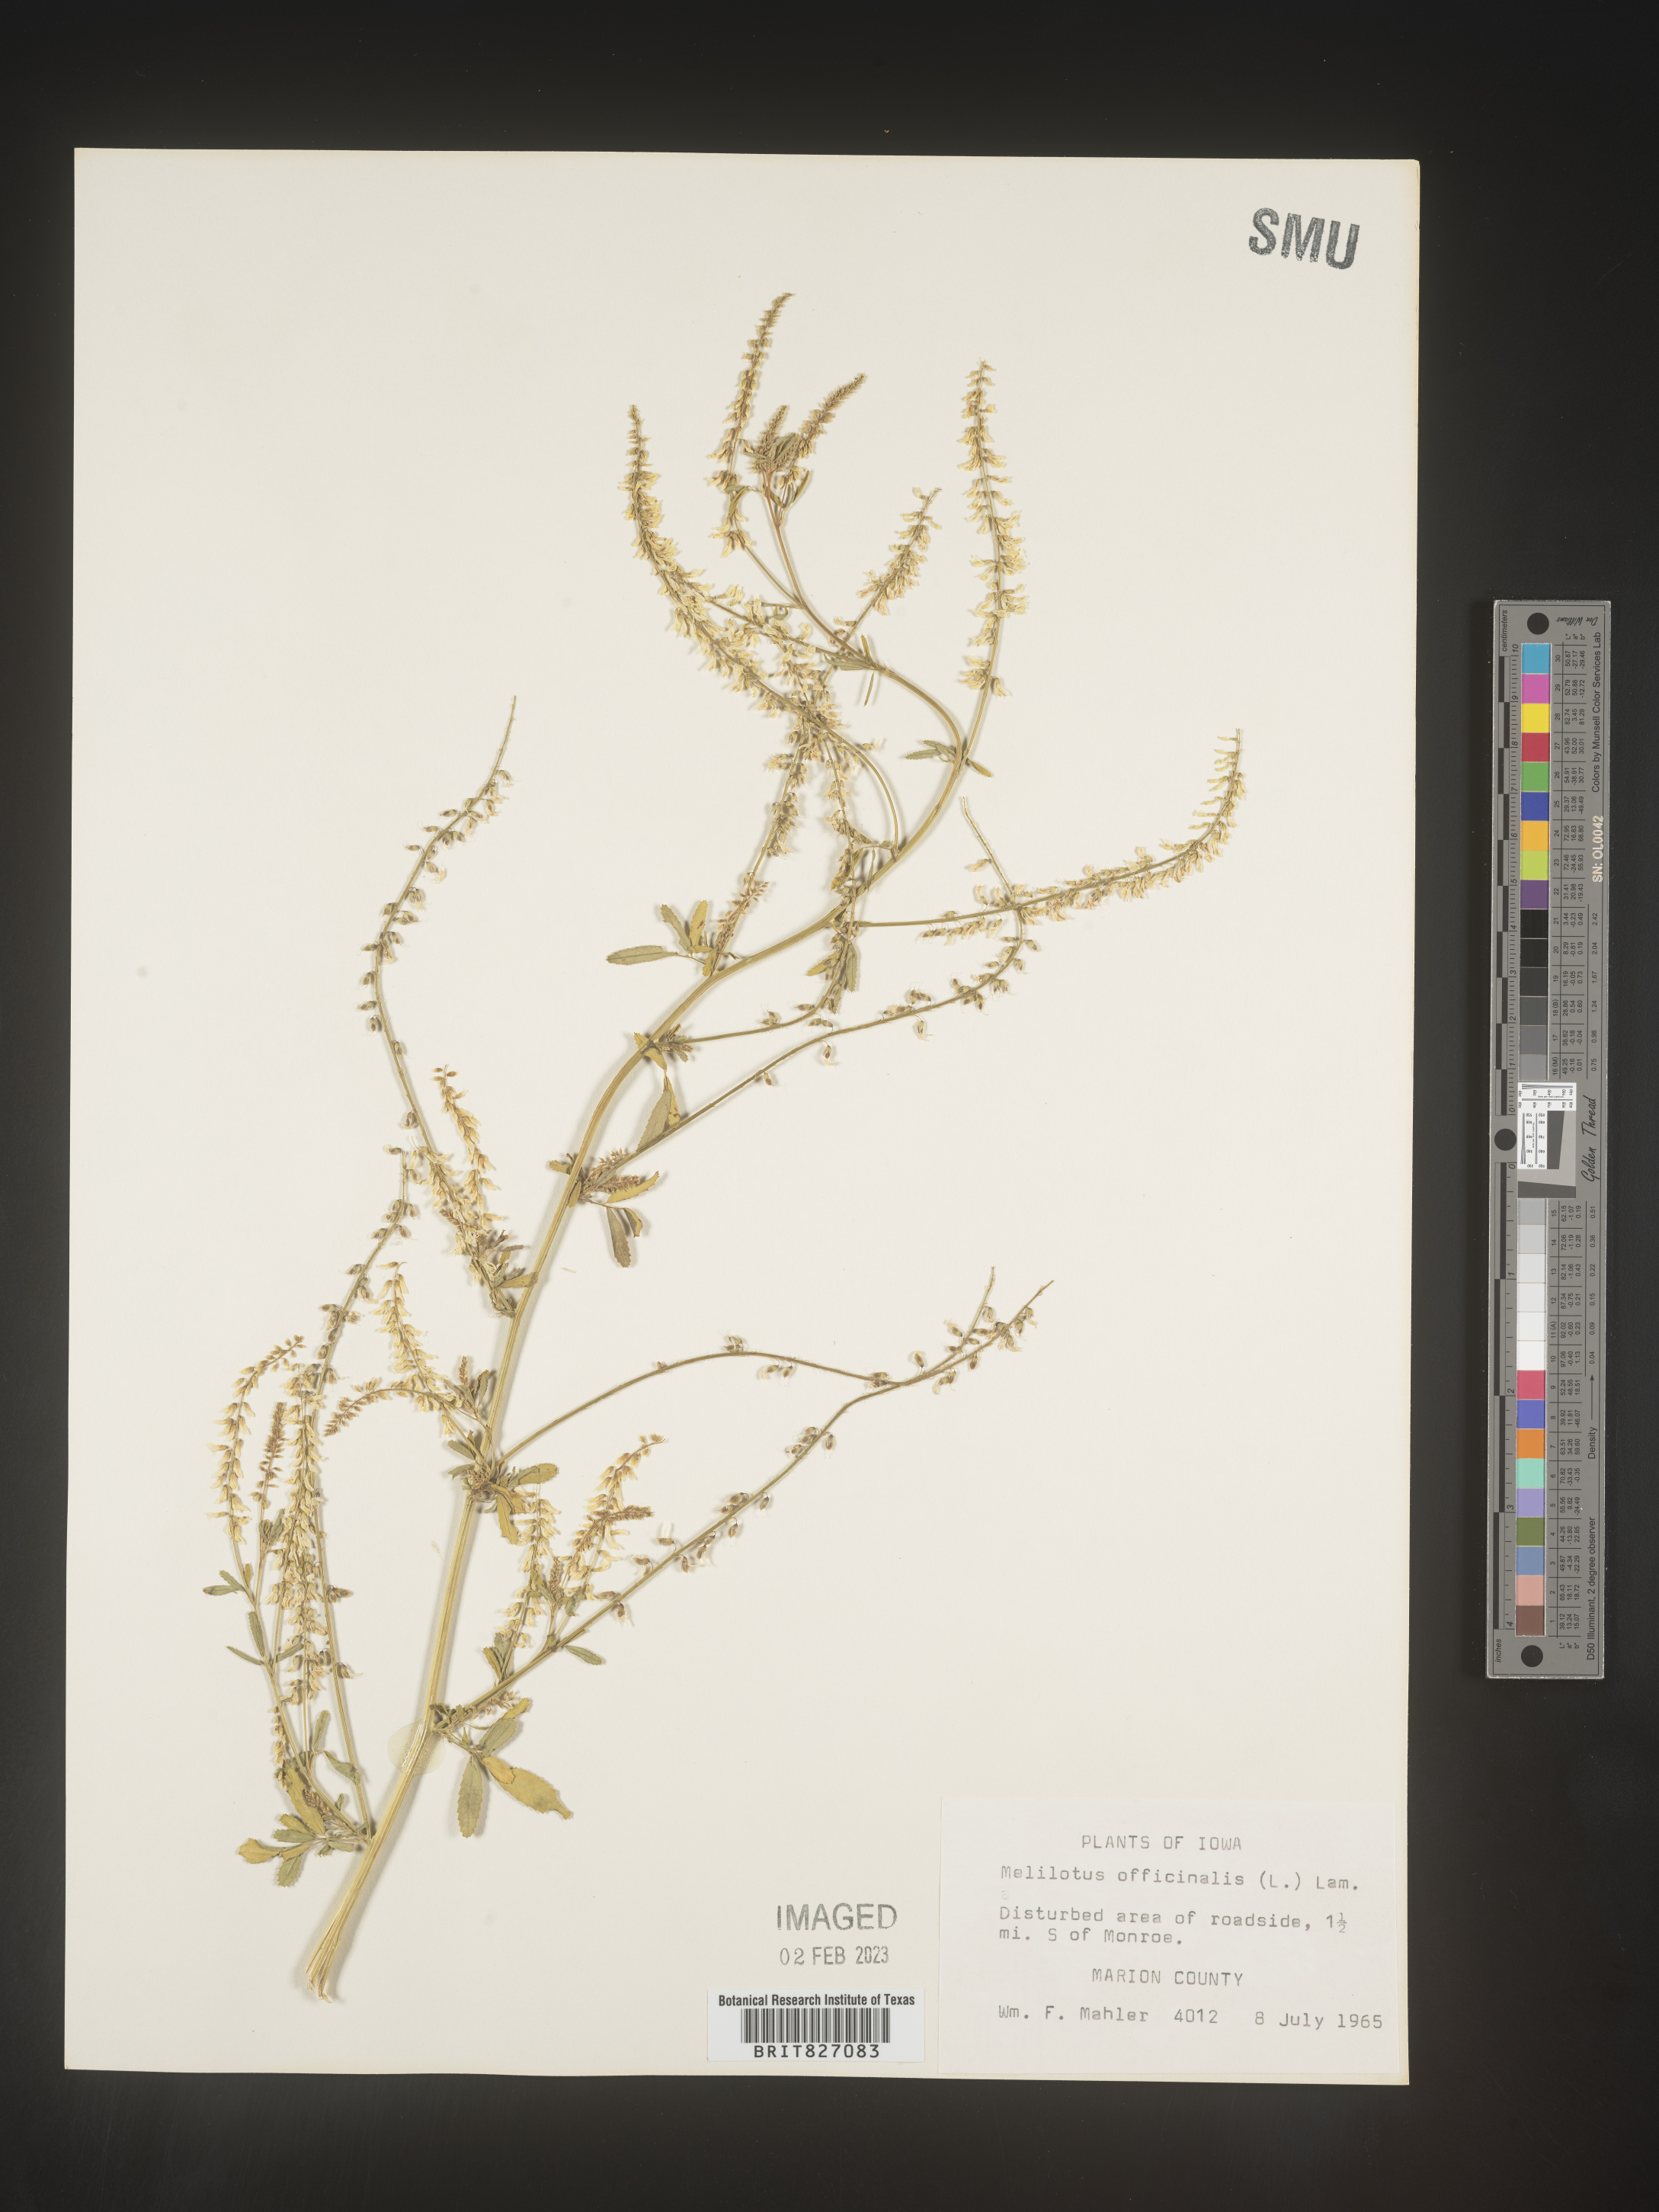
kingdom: Plantae
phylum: Tracheophyta
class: Magnoliopsida
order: Fabales
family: Fabaceae
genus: Melilotus
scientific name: Melilotus officinalis
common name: Sweetclover
